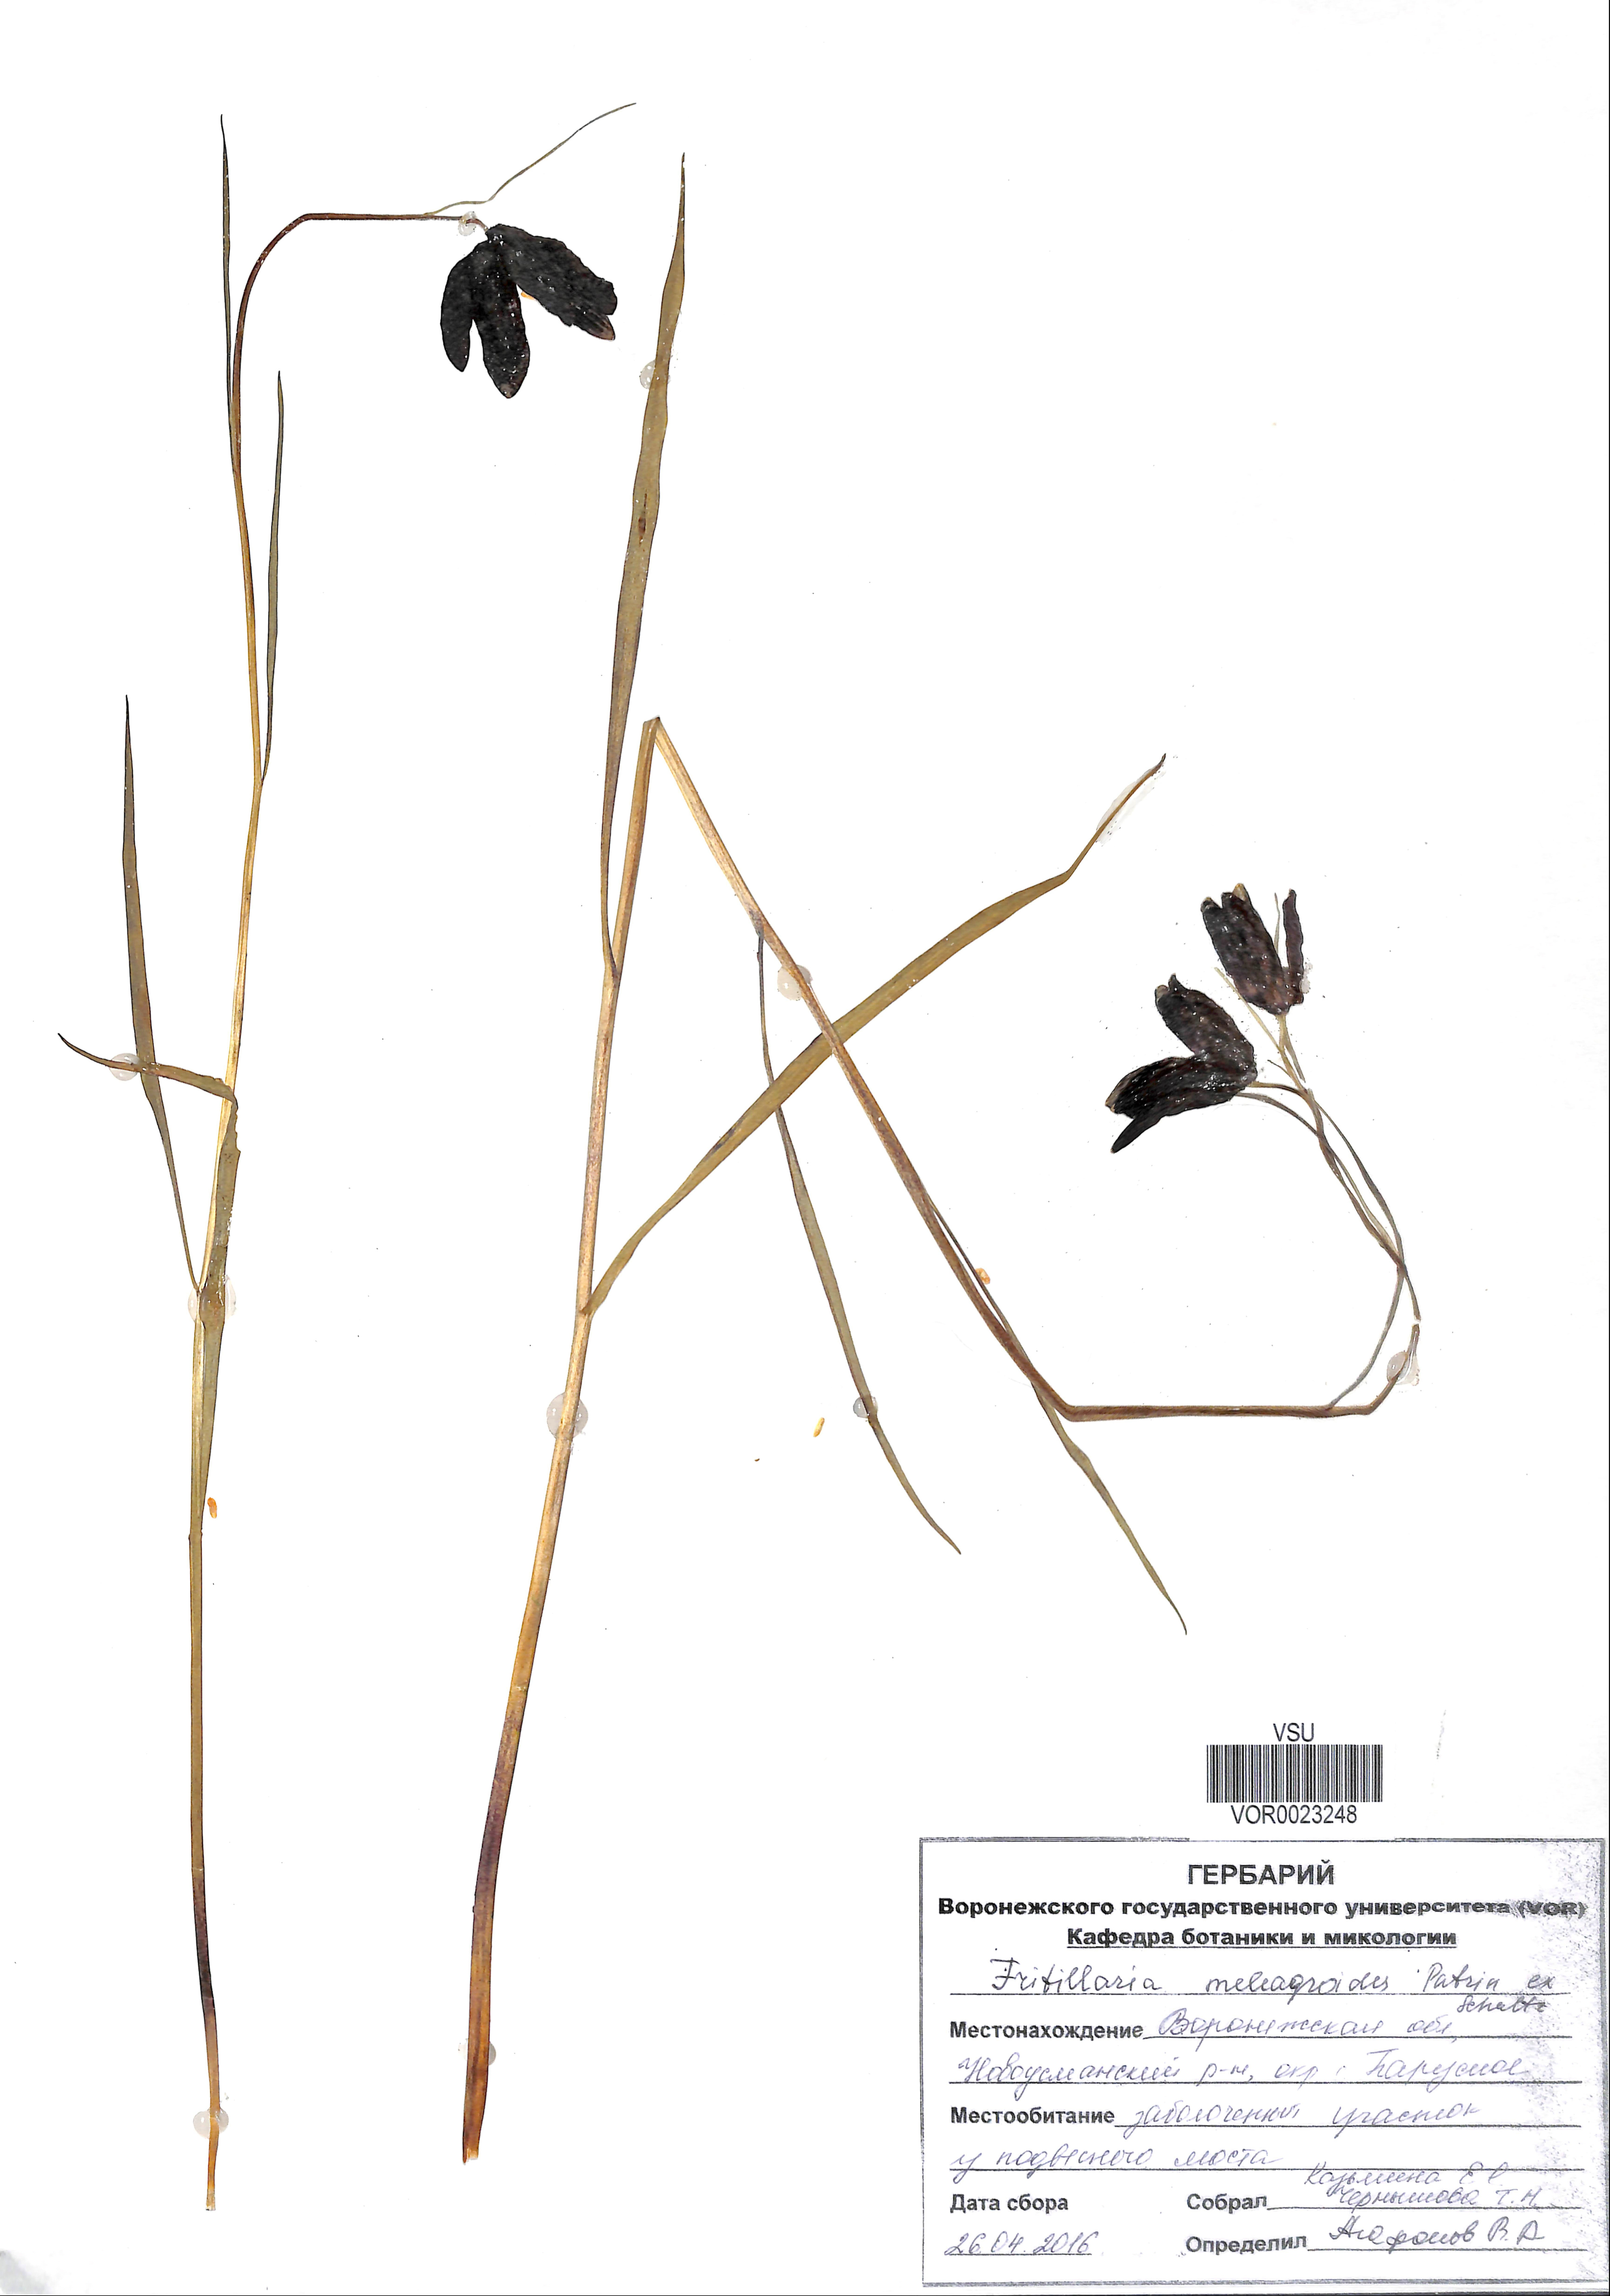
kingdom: Plantae
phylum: Tracheophyta
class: Liliopsida
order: Liliales
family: Liliaceae
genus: Fritillaria
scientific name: Fritillaria meleagroides
